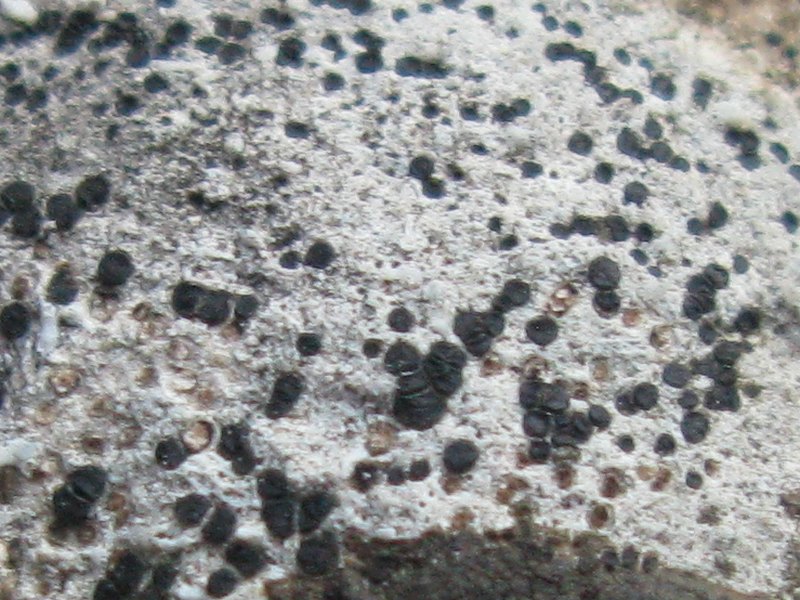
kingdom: Fungi
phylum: Ascomycota
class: Lecanoromycetes
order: Lecideales
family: Lecideaceae
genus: Clauzadea
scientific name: Clauzadea metzleri
